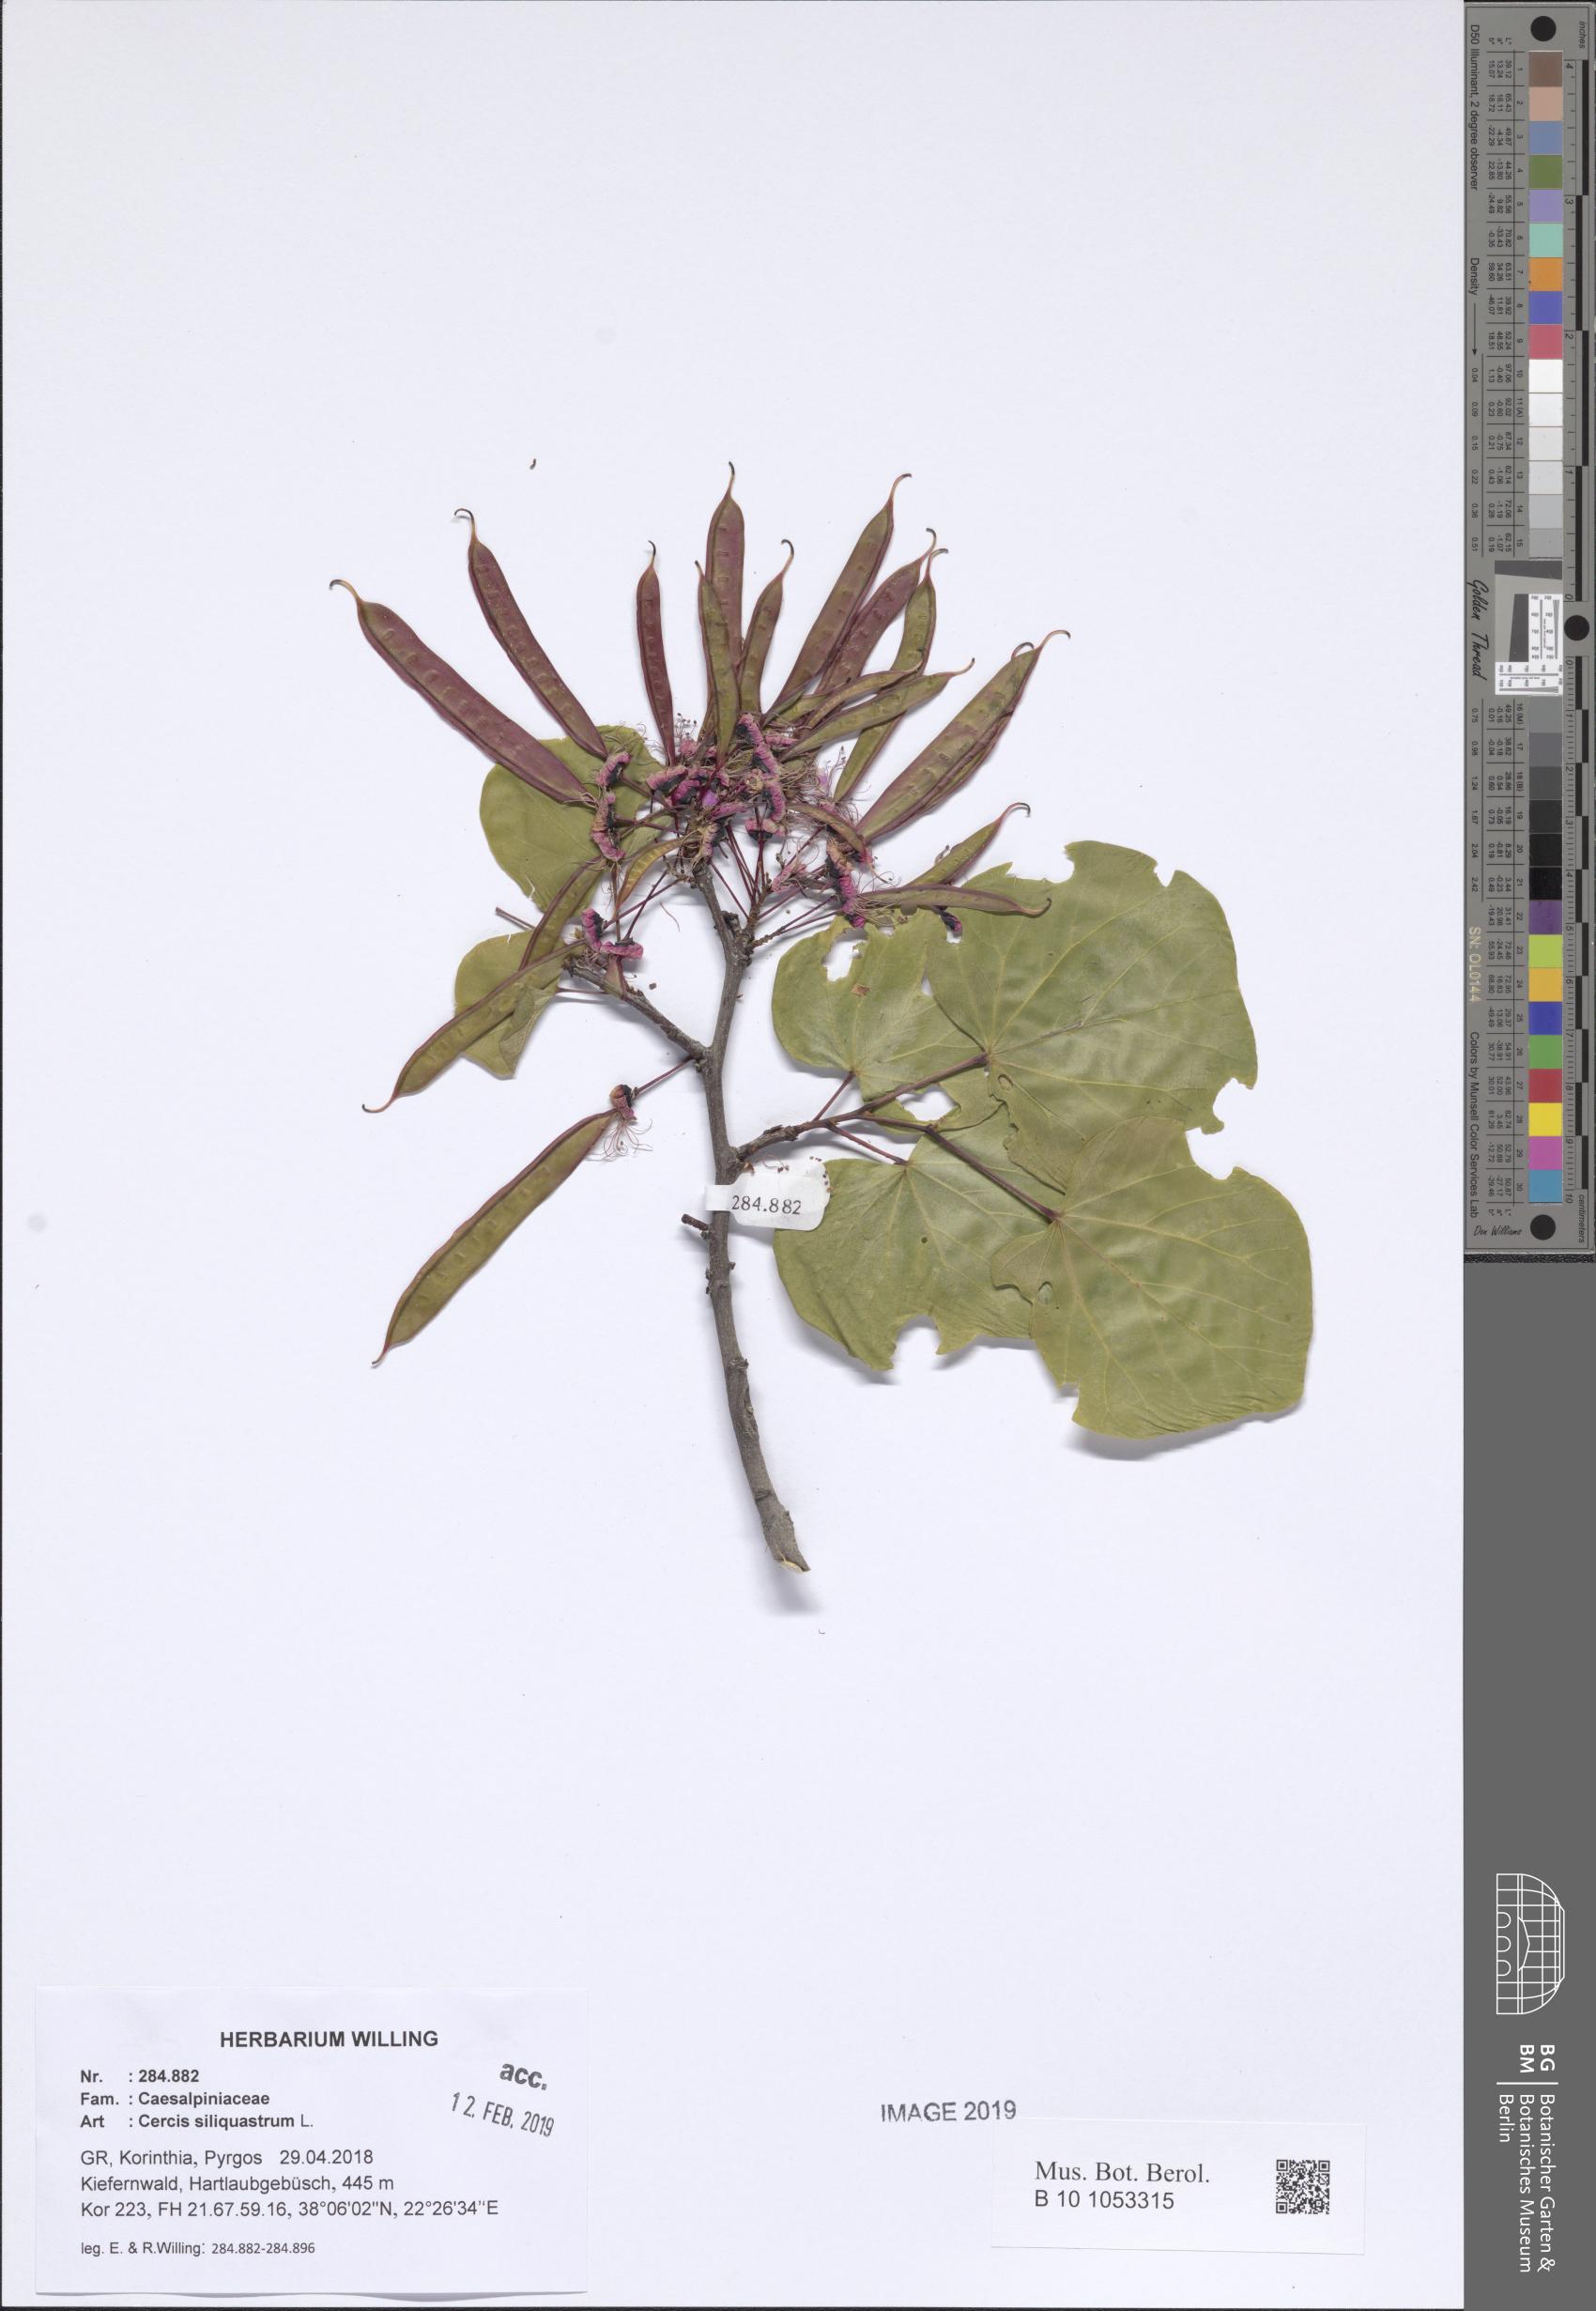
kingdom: Plantae
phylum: Tracheophyta
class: Magnoliopsida
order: Fabales
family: Fabaceae
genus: Cercis
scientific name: Cercis siliquastrum
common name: Judas tree
